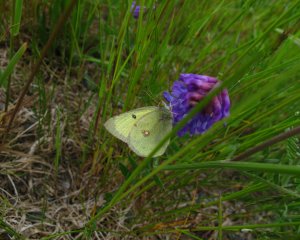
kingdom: Animalia
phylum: Arthropoda
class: Insecta
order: Lepidoptera
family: Pieridae
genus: Colias
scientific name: Colias philodice
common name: Clouded Sulphur
